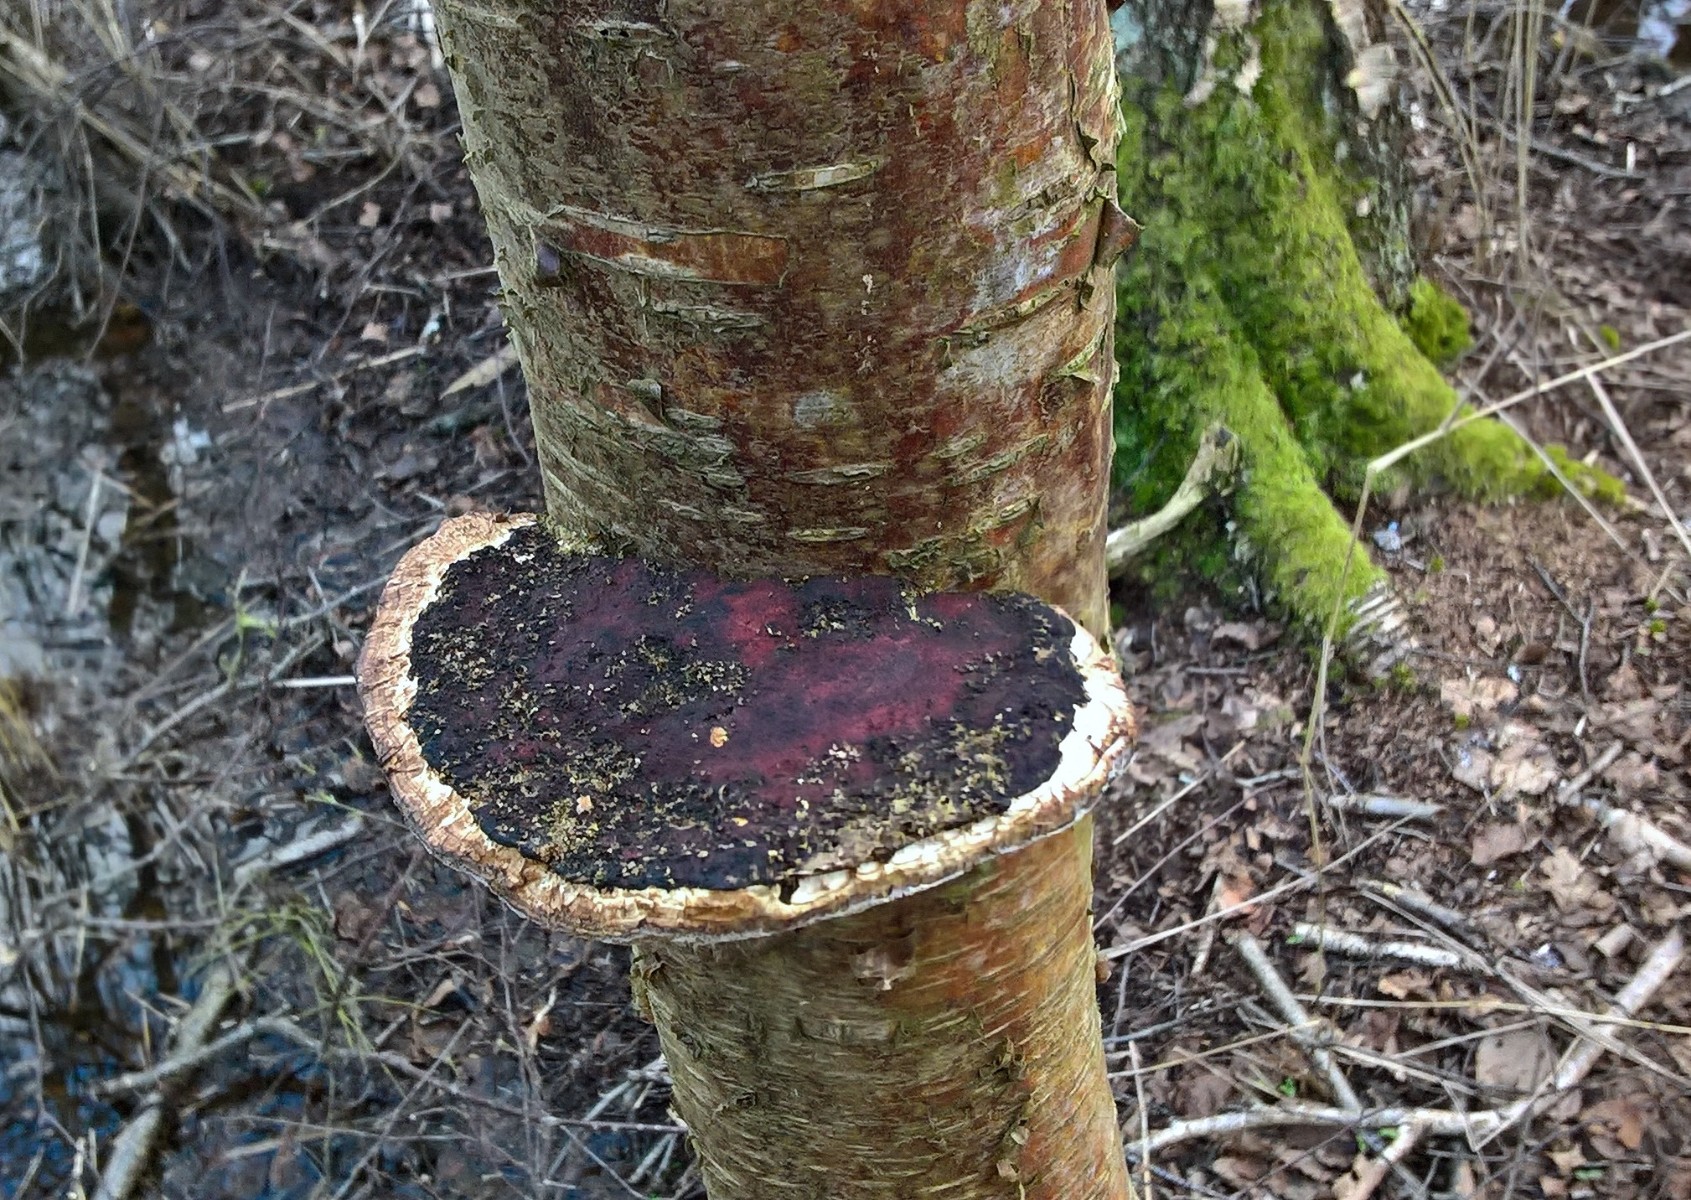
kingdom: Fungi
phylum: Basidiomycota
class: Agaricomycetes
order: Polyporales
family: Polyporaceae
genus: Daedaleopsis
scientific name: Daedaleopsis confragosa
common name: rødmende læderporesvamp
